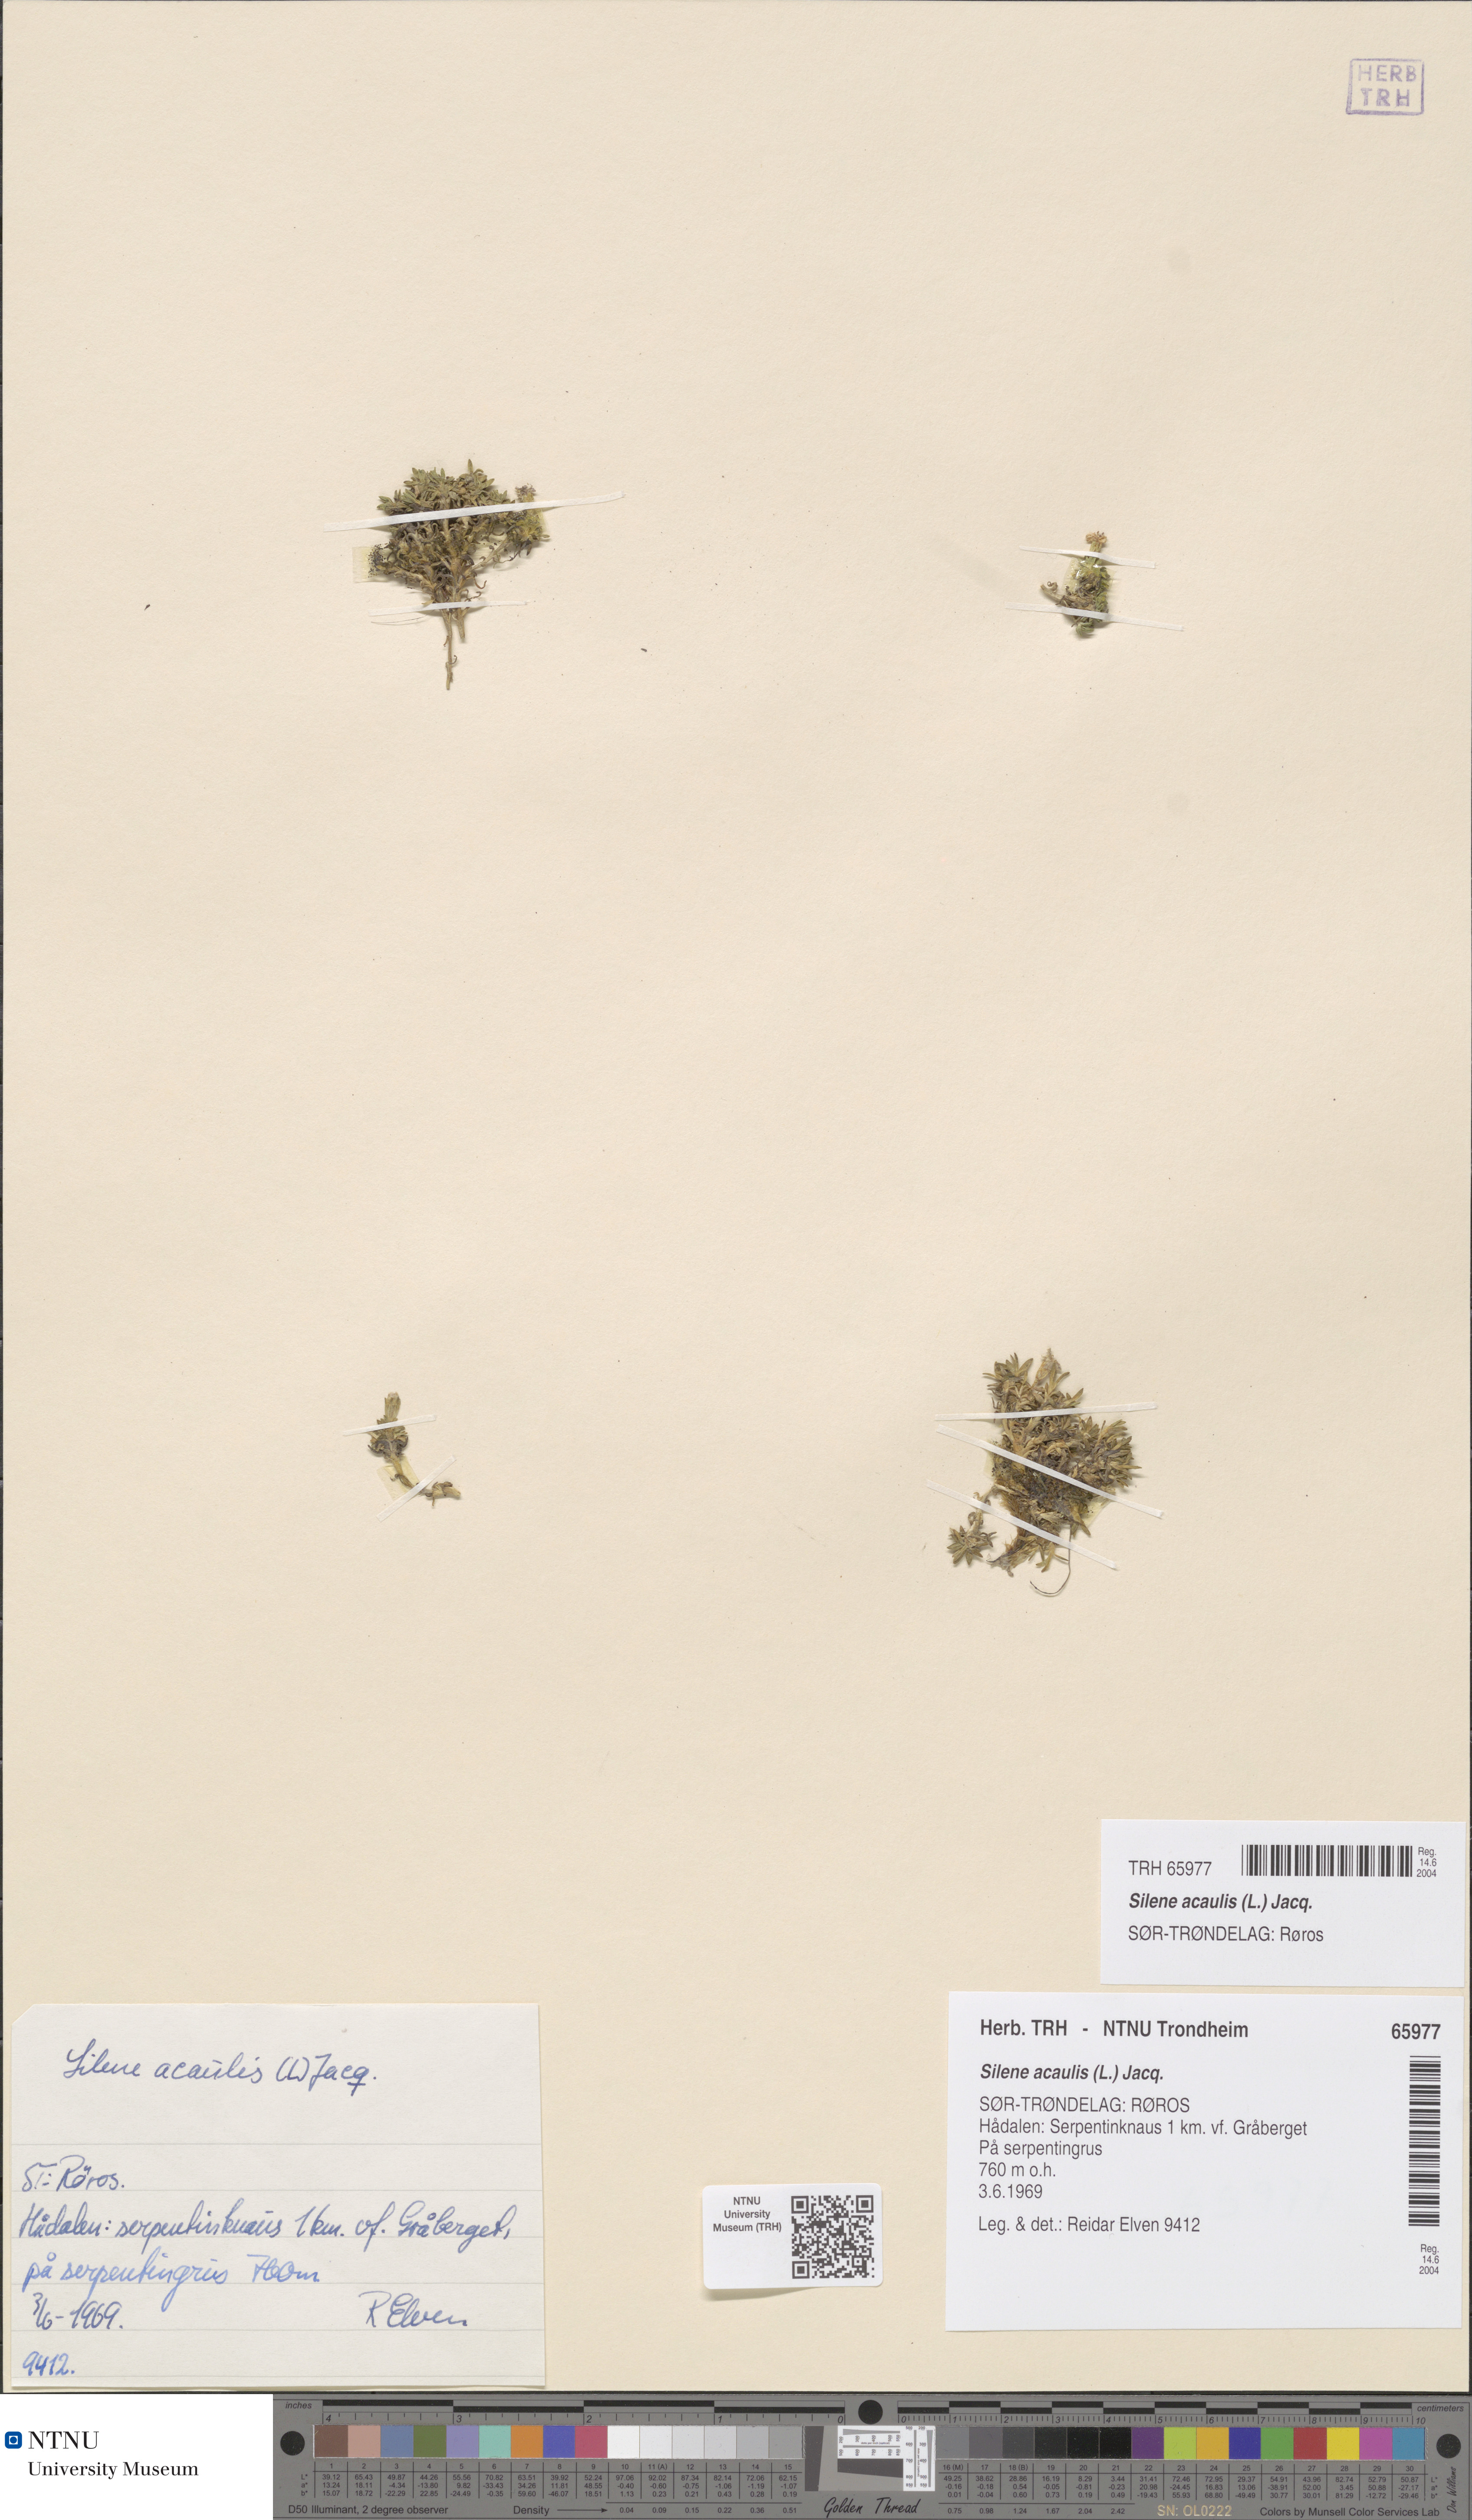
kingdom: Plantae
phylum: Tracheophyta
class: Magnoliopsida
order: Caryophyllales
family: Caryophyllaceae
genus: Silene
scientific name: Silene acaulis
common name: Moss campion
